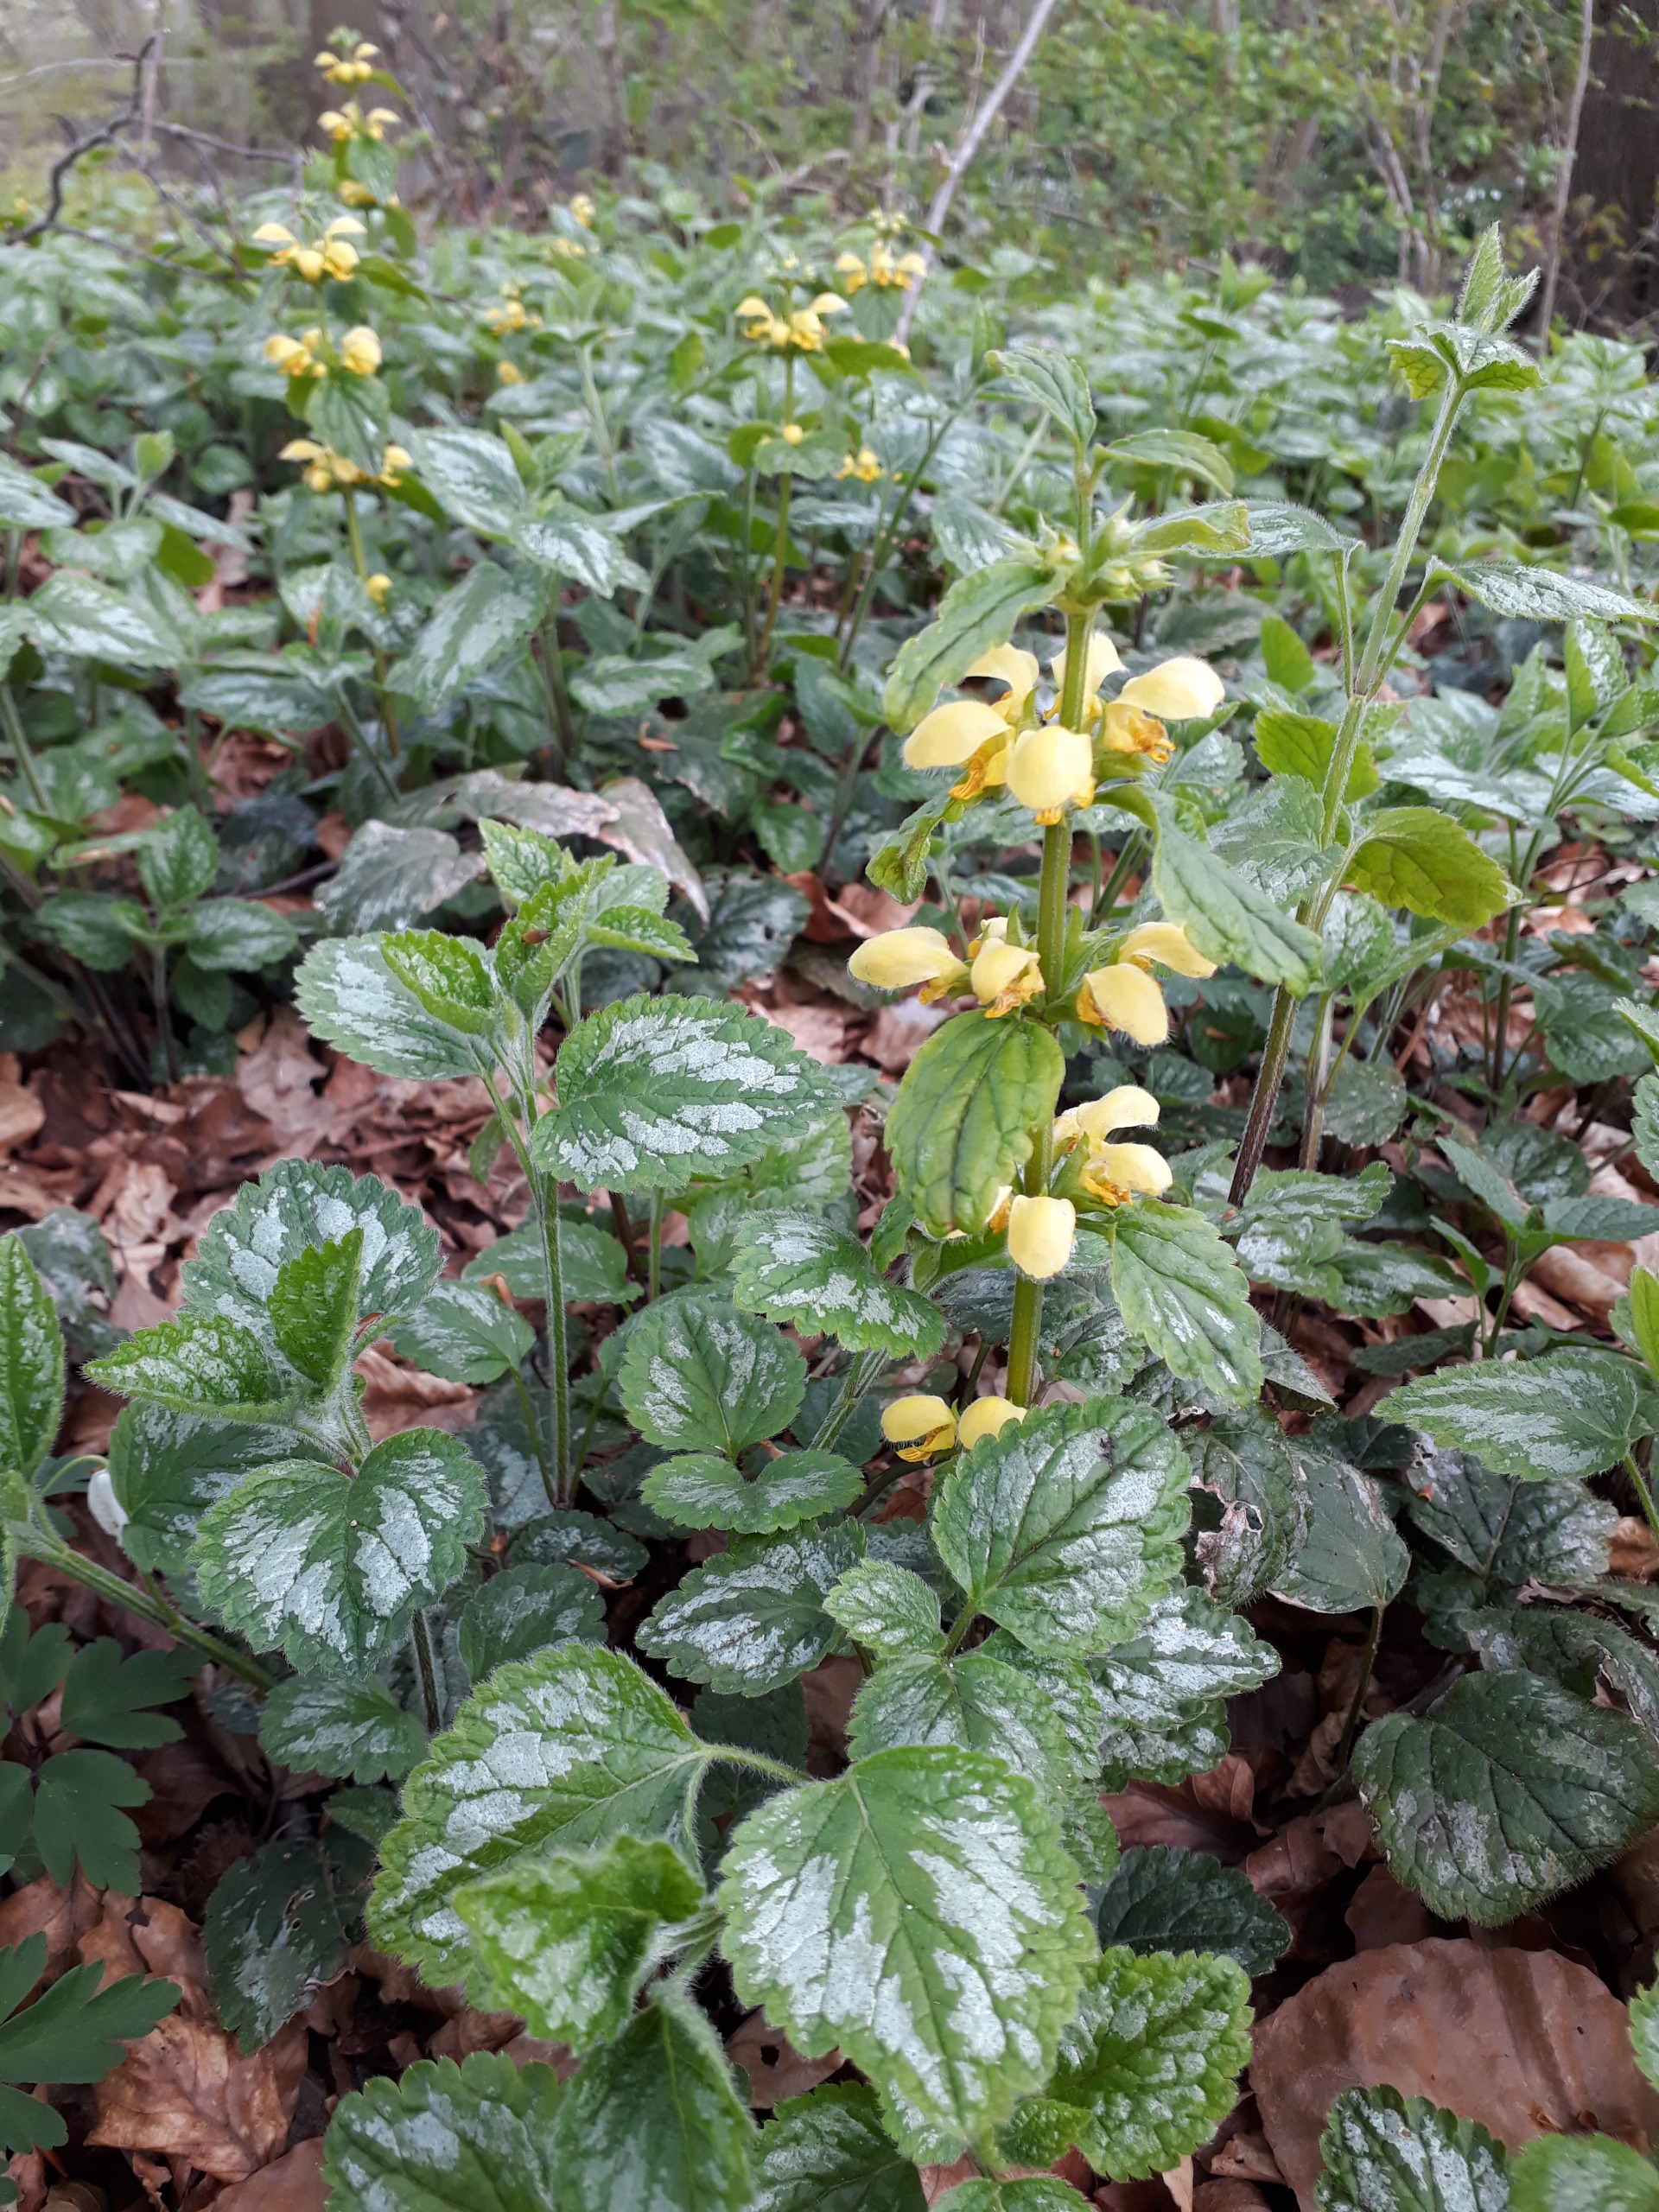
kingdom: Plantae
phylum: Tracheophyta
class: Magnoliopsida
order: Lamiales
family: Lamiaceae
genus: Lamium
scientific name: Lamium galeobdolon
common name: Have-guldnælde
